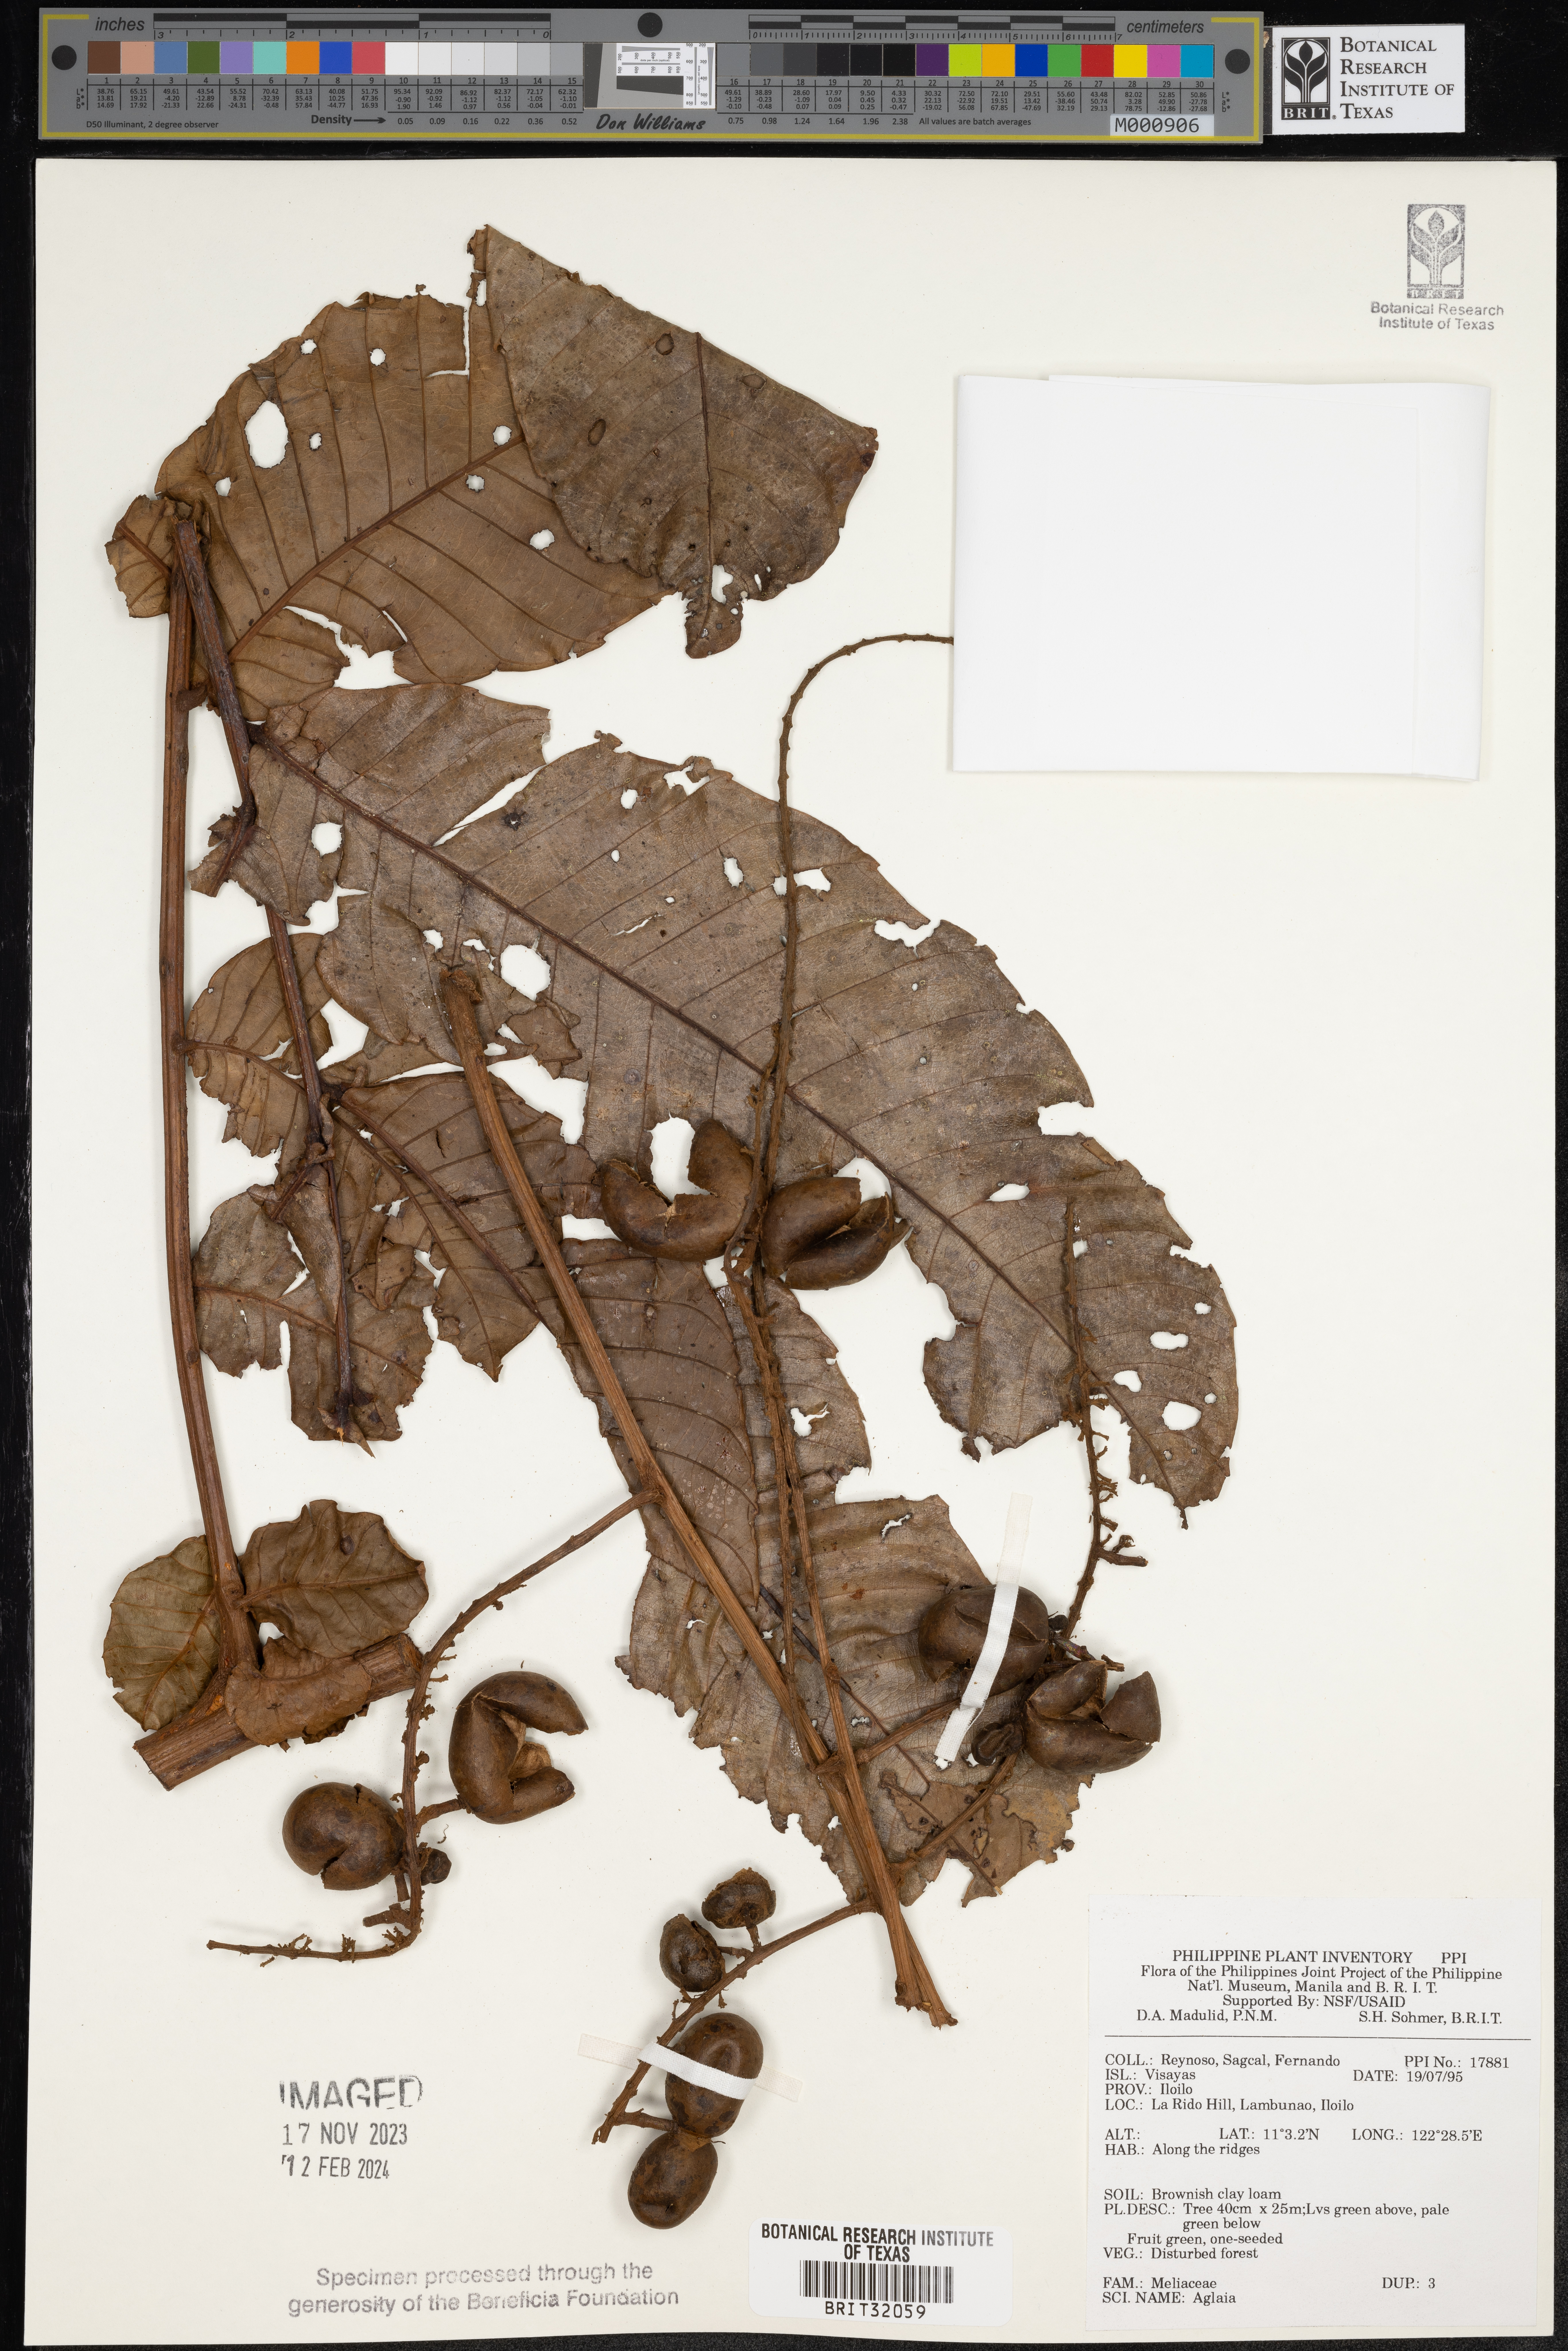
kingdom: Plantae
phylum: Tracheophyta
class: Magnoliopsida
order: Sapindales
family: Meliaceae
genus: Aglaia
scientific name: Aglaia
